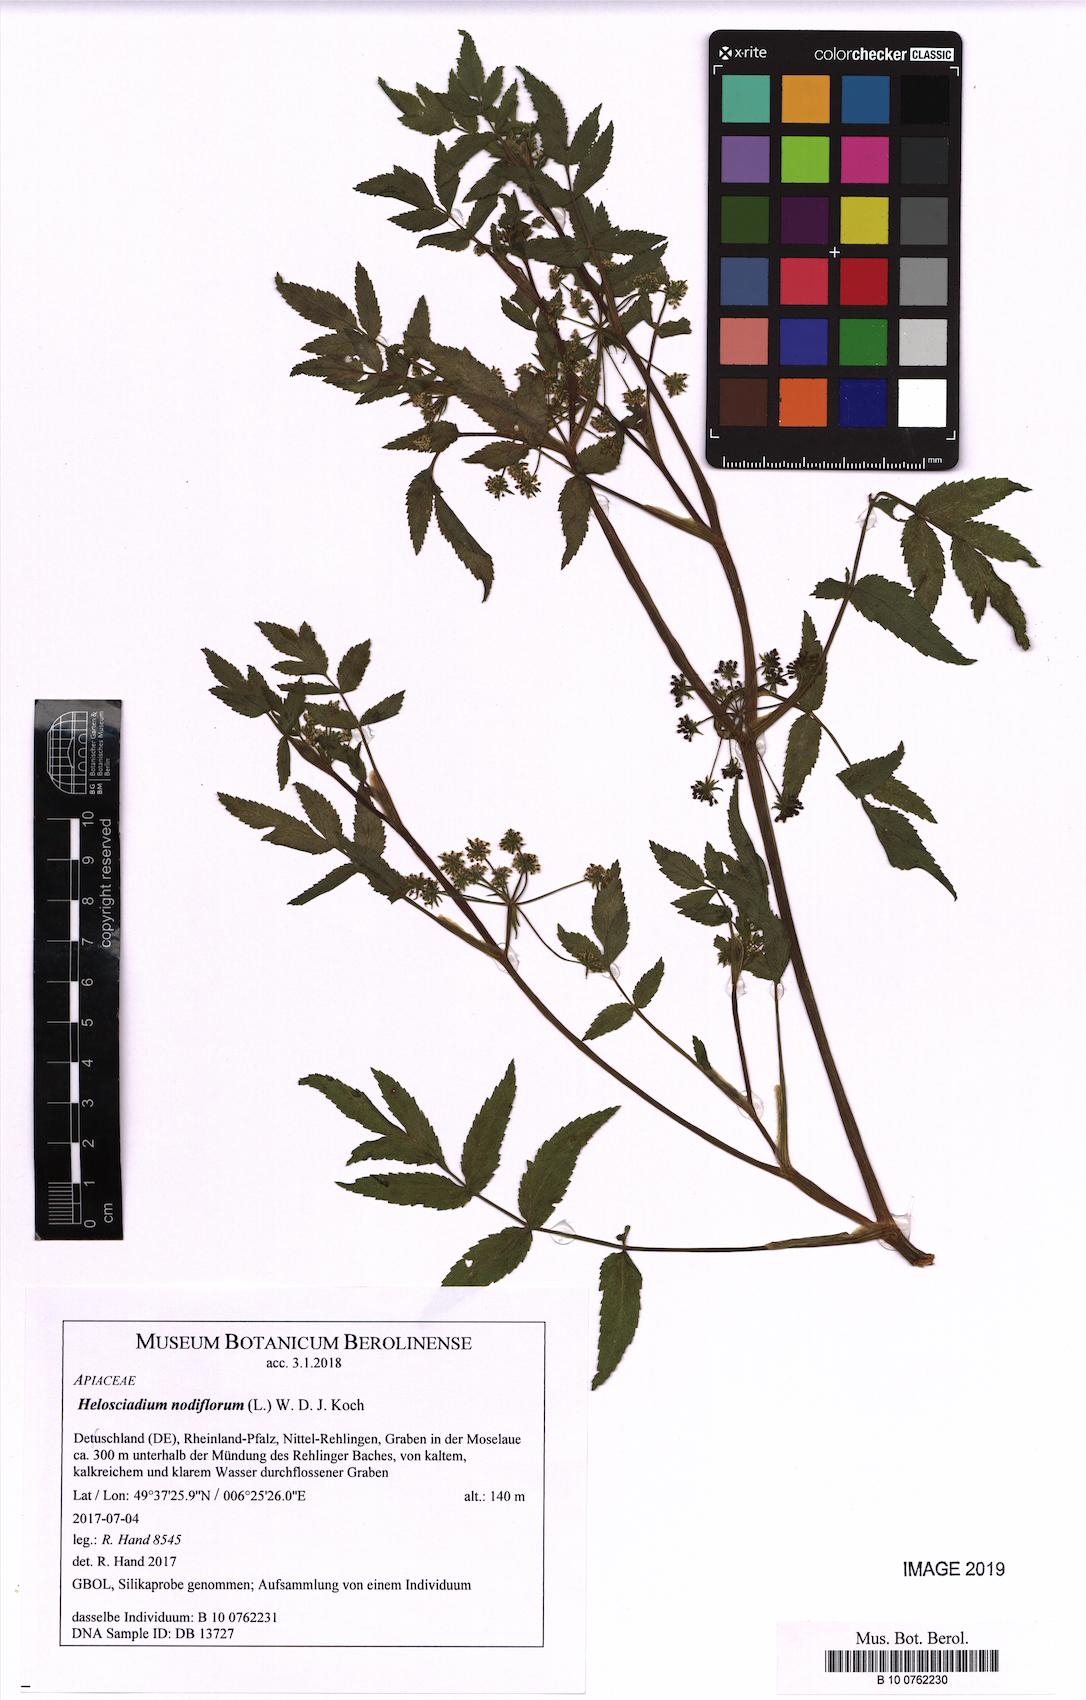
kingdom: Plantae
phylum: Tracheophyta
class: Magnoliopsida
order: Apiales
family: Apiaceae
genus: Helosciadium
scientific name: Helosciadium nodiflorum
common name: Fool's-watercress
